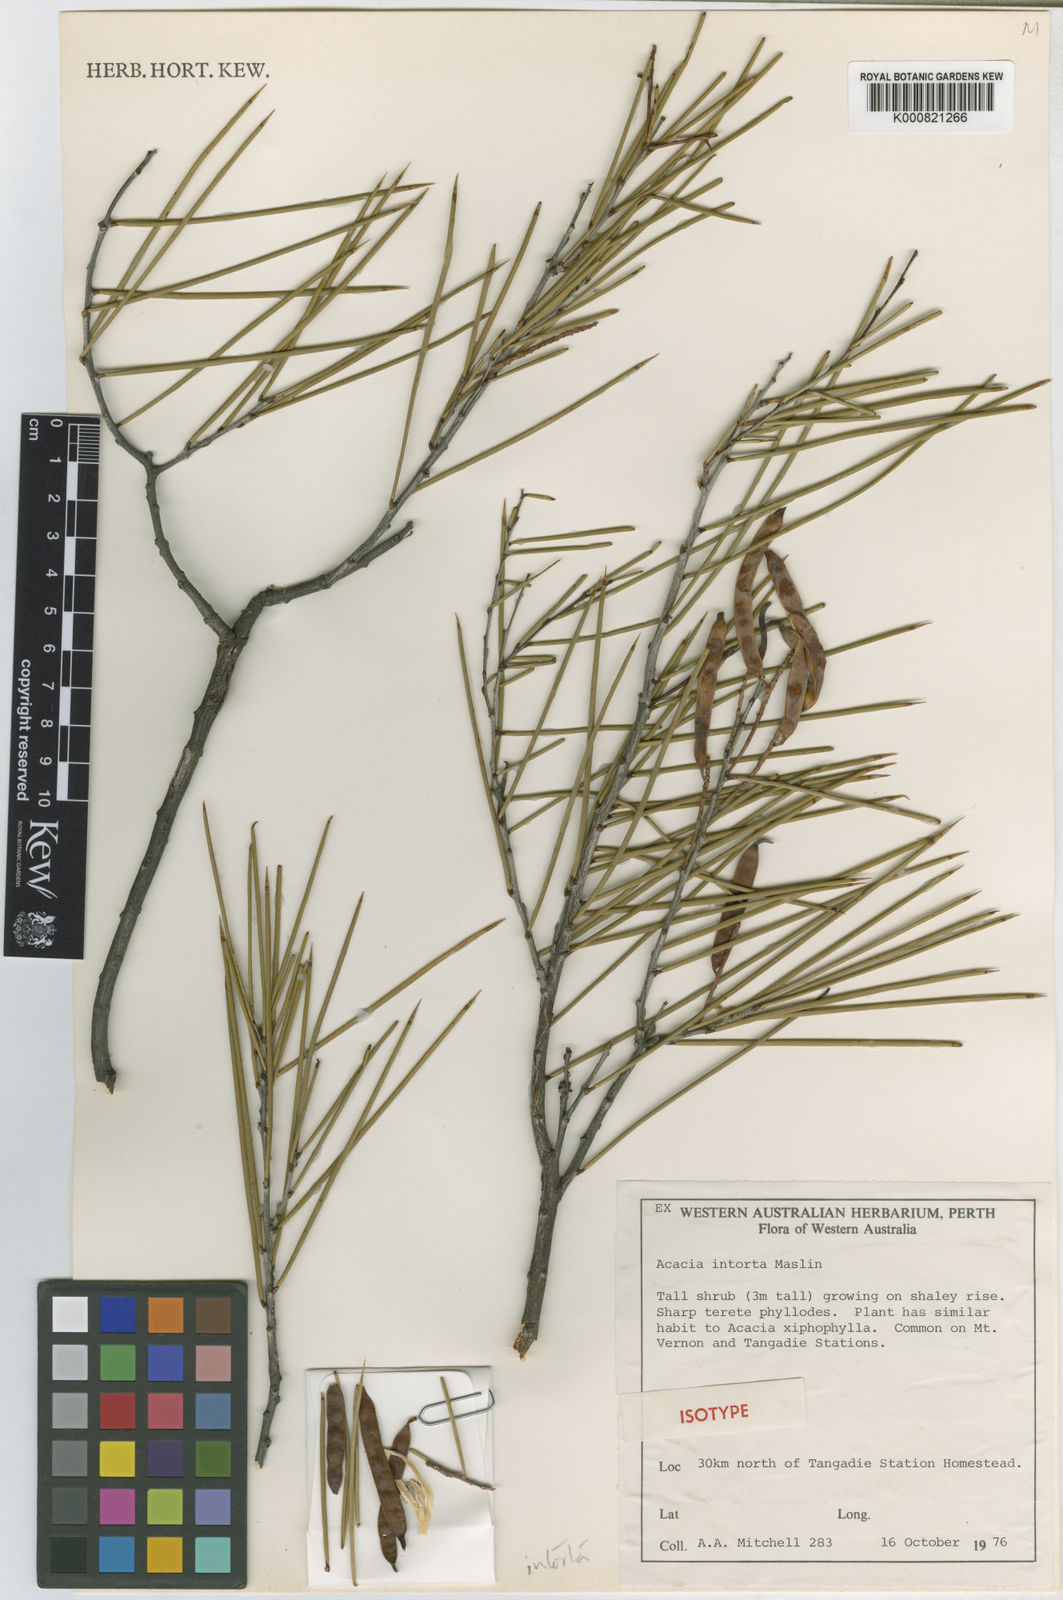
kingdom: Plantae
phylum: Tracheophyta
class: Magnoliopsida
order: Fabales
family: Fabaceae
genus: Acacia
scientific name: Acacia intorta
